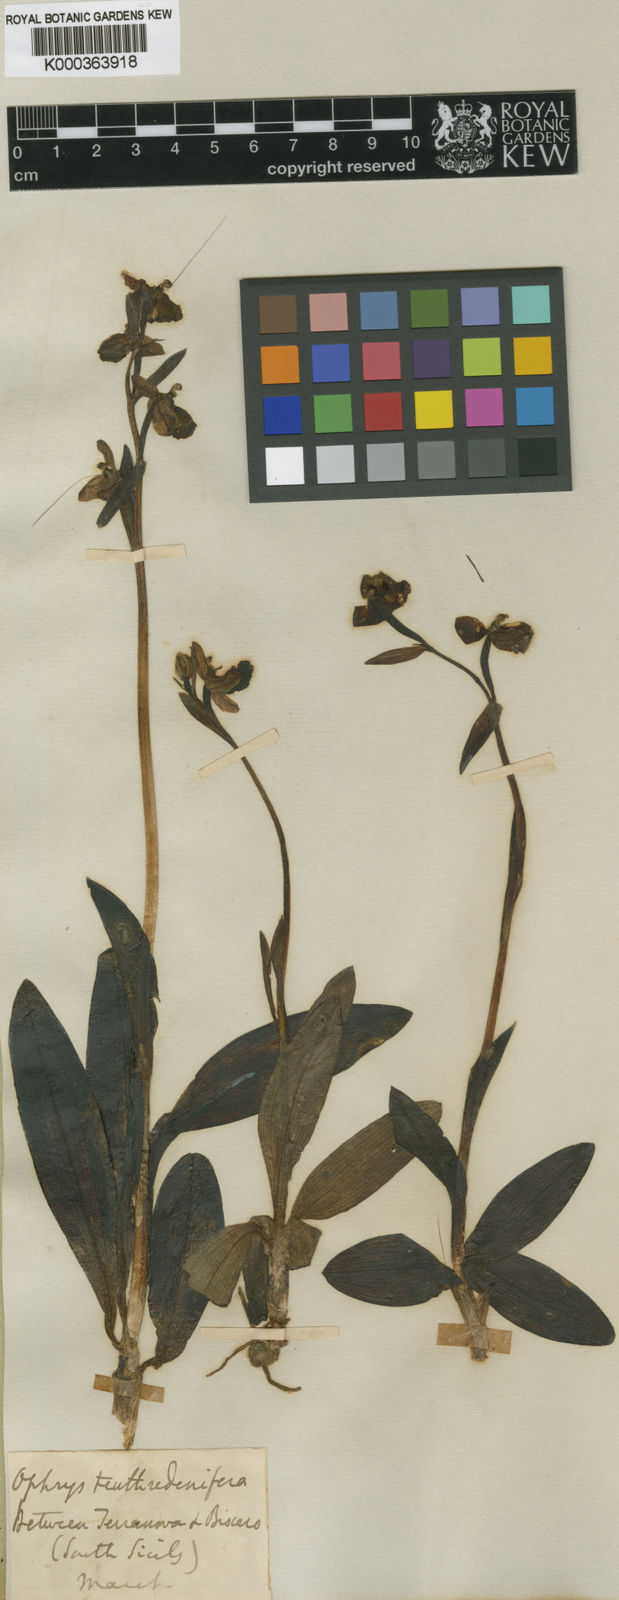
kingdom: Plantae
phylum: Tracheophyta
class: Liliopsida
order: Asparagales
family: Orchidaceae
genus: Ophrys
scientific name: Ophrys tenthredinifera
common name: Sawfly orchid
